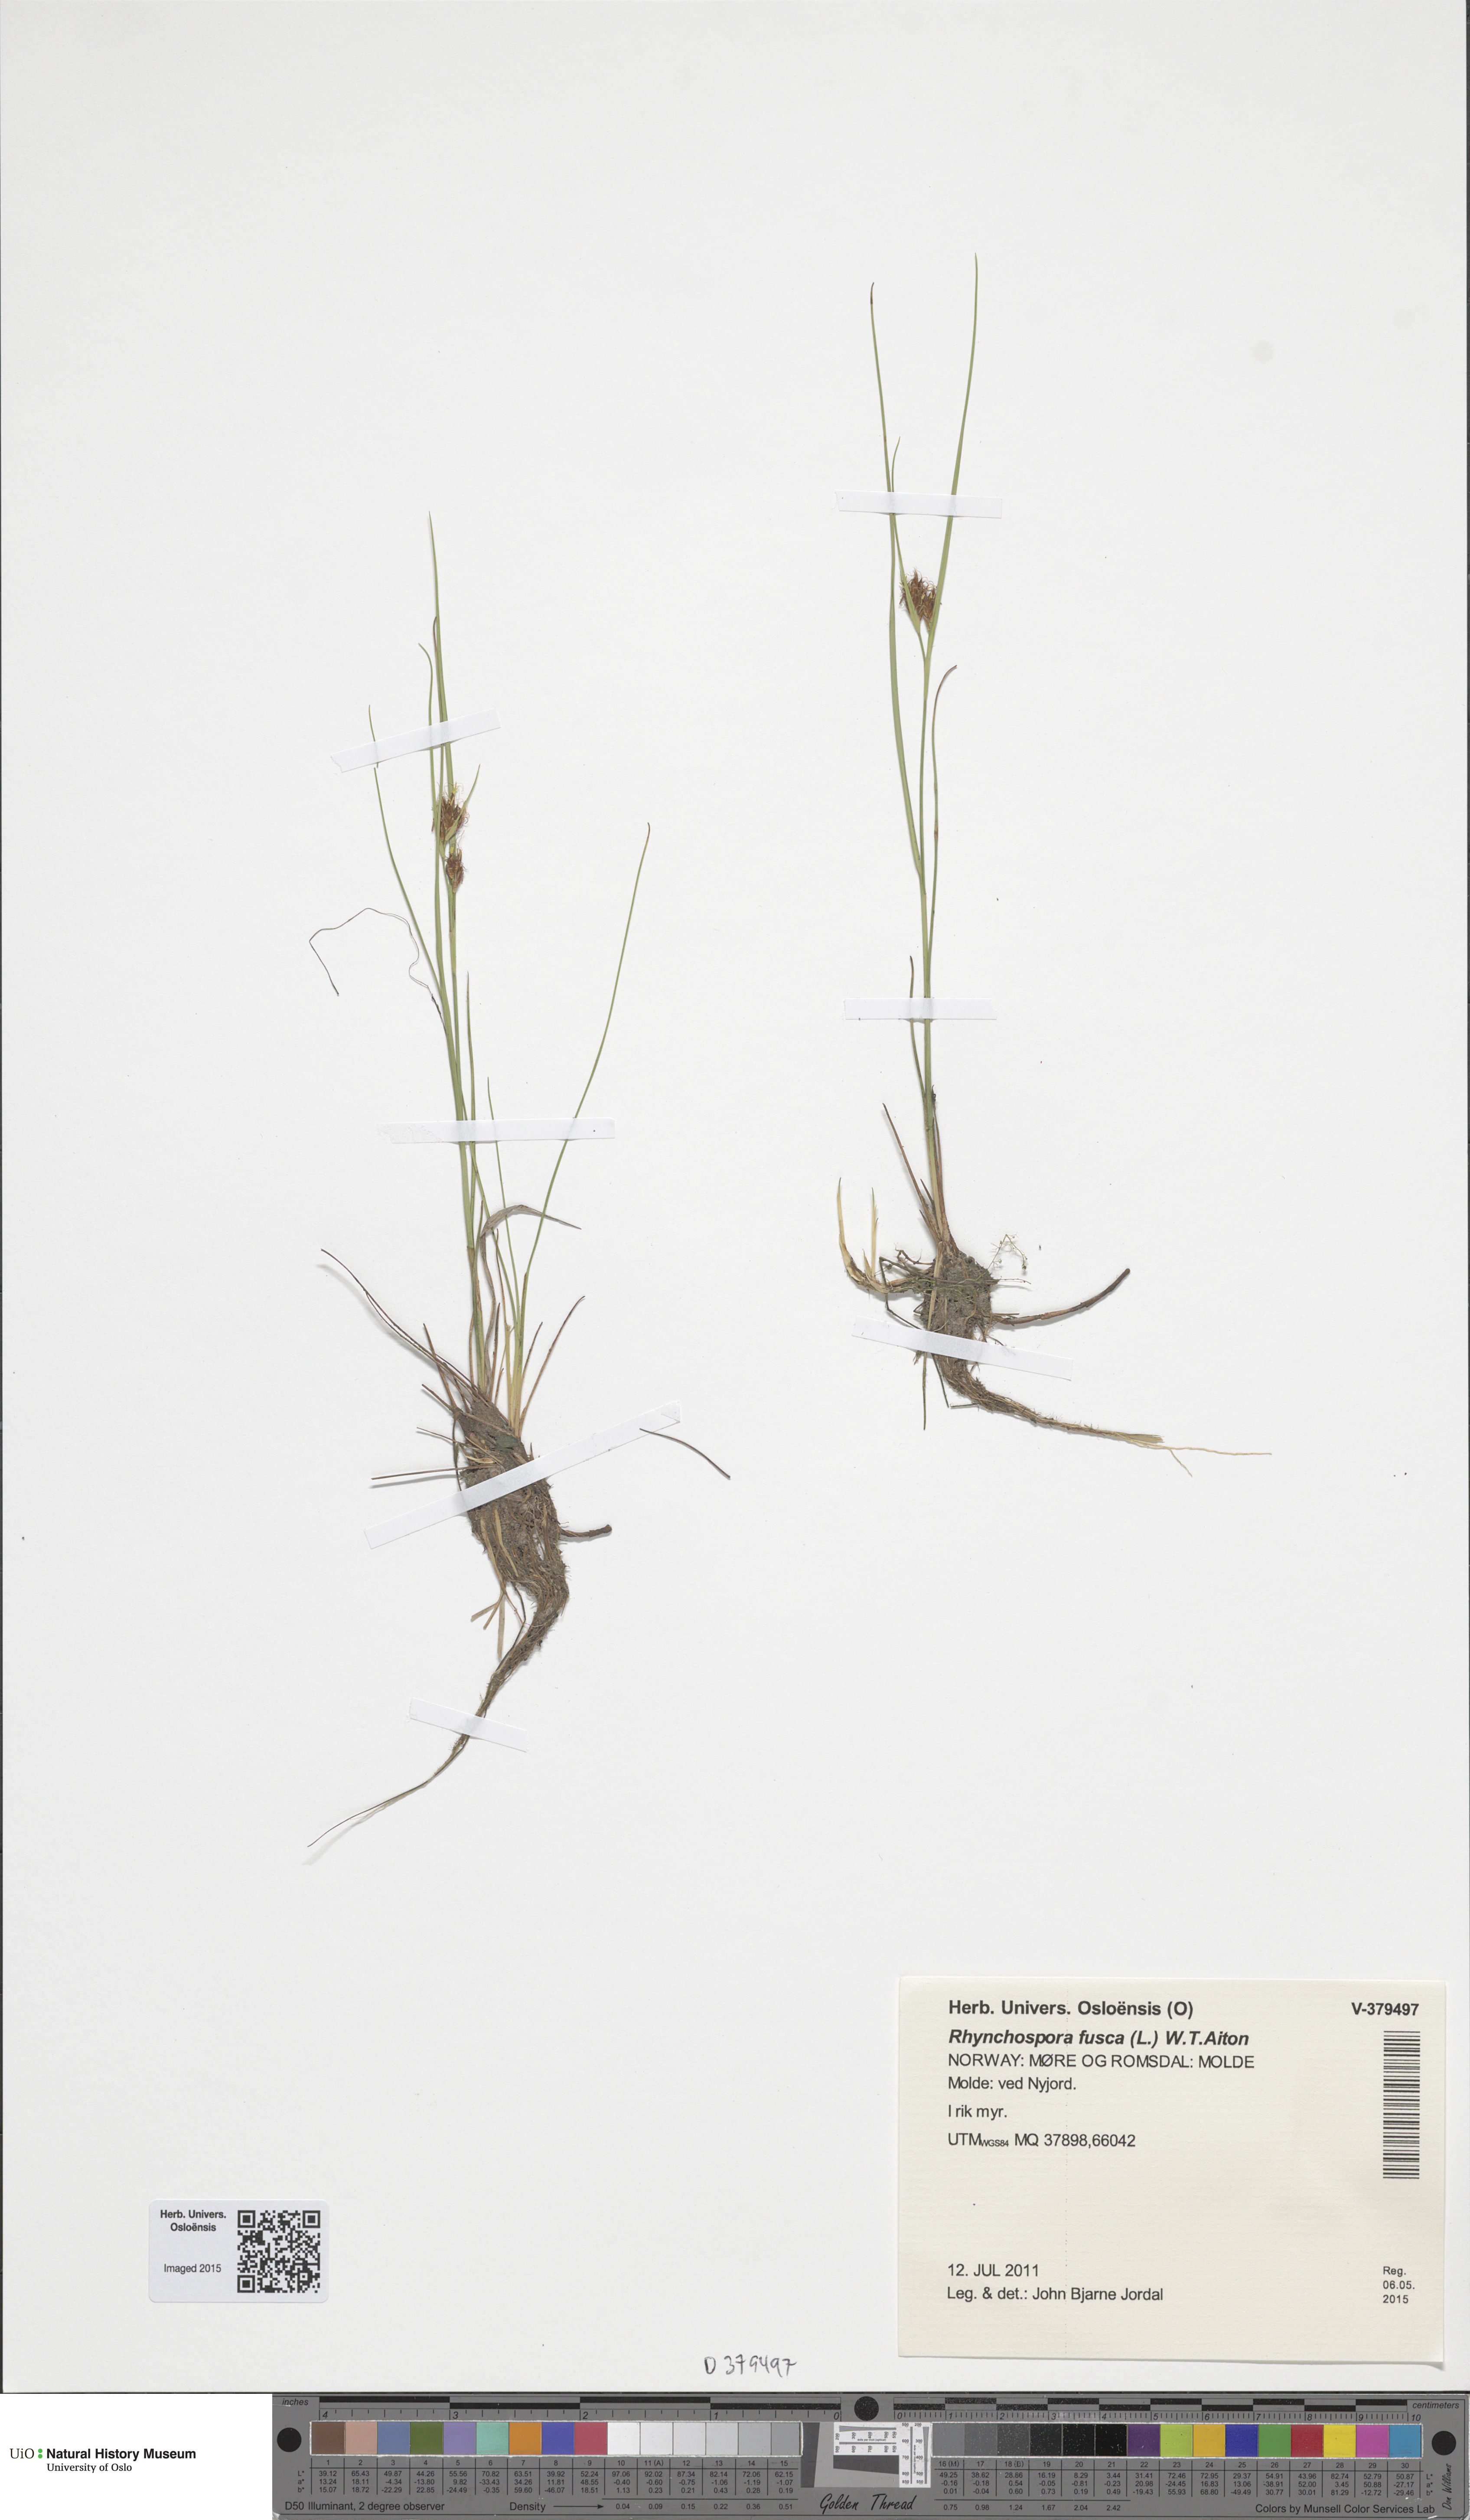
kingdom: Plantae
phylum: Tracheophyta
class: Liliopsida
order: Poales
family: Cyperaceae
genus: Rhynchospora
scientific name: Rhynchospora fusca
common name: Brown beak-sedge
